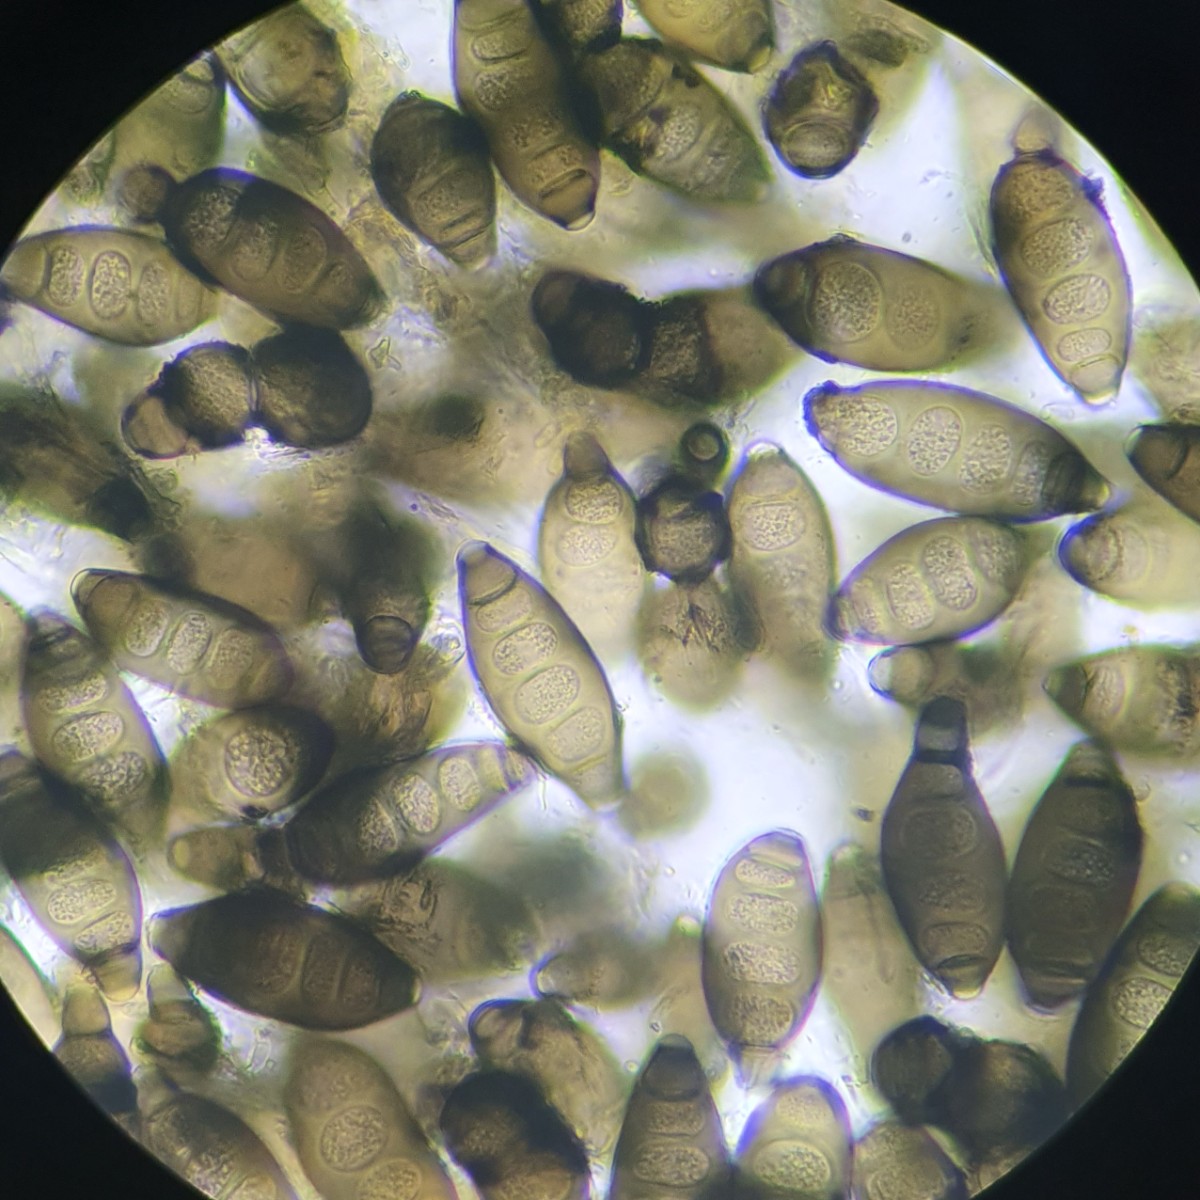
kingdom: Fungi
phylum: Ascomycota
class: Sordariomycetes
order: Diaporthales
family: Coryneaceae
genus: Coryneum
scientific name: Coryneum elevatum
